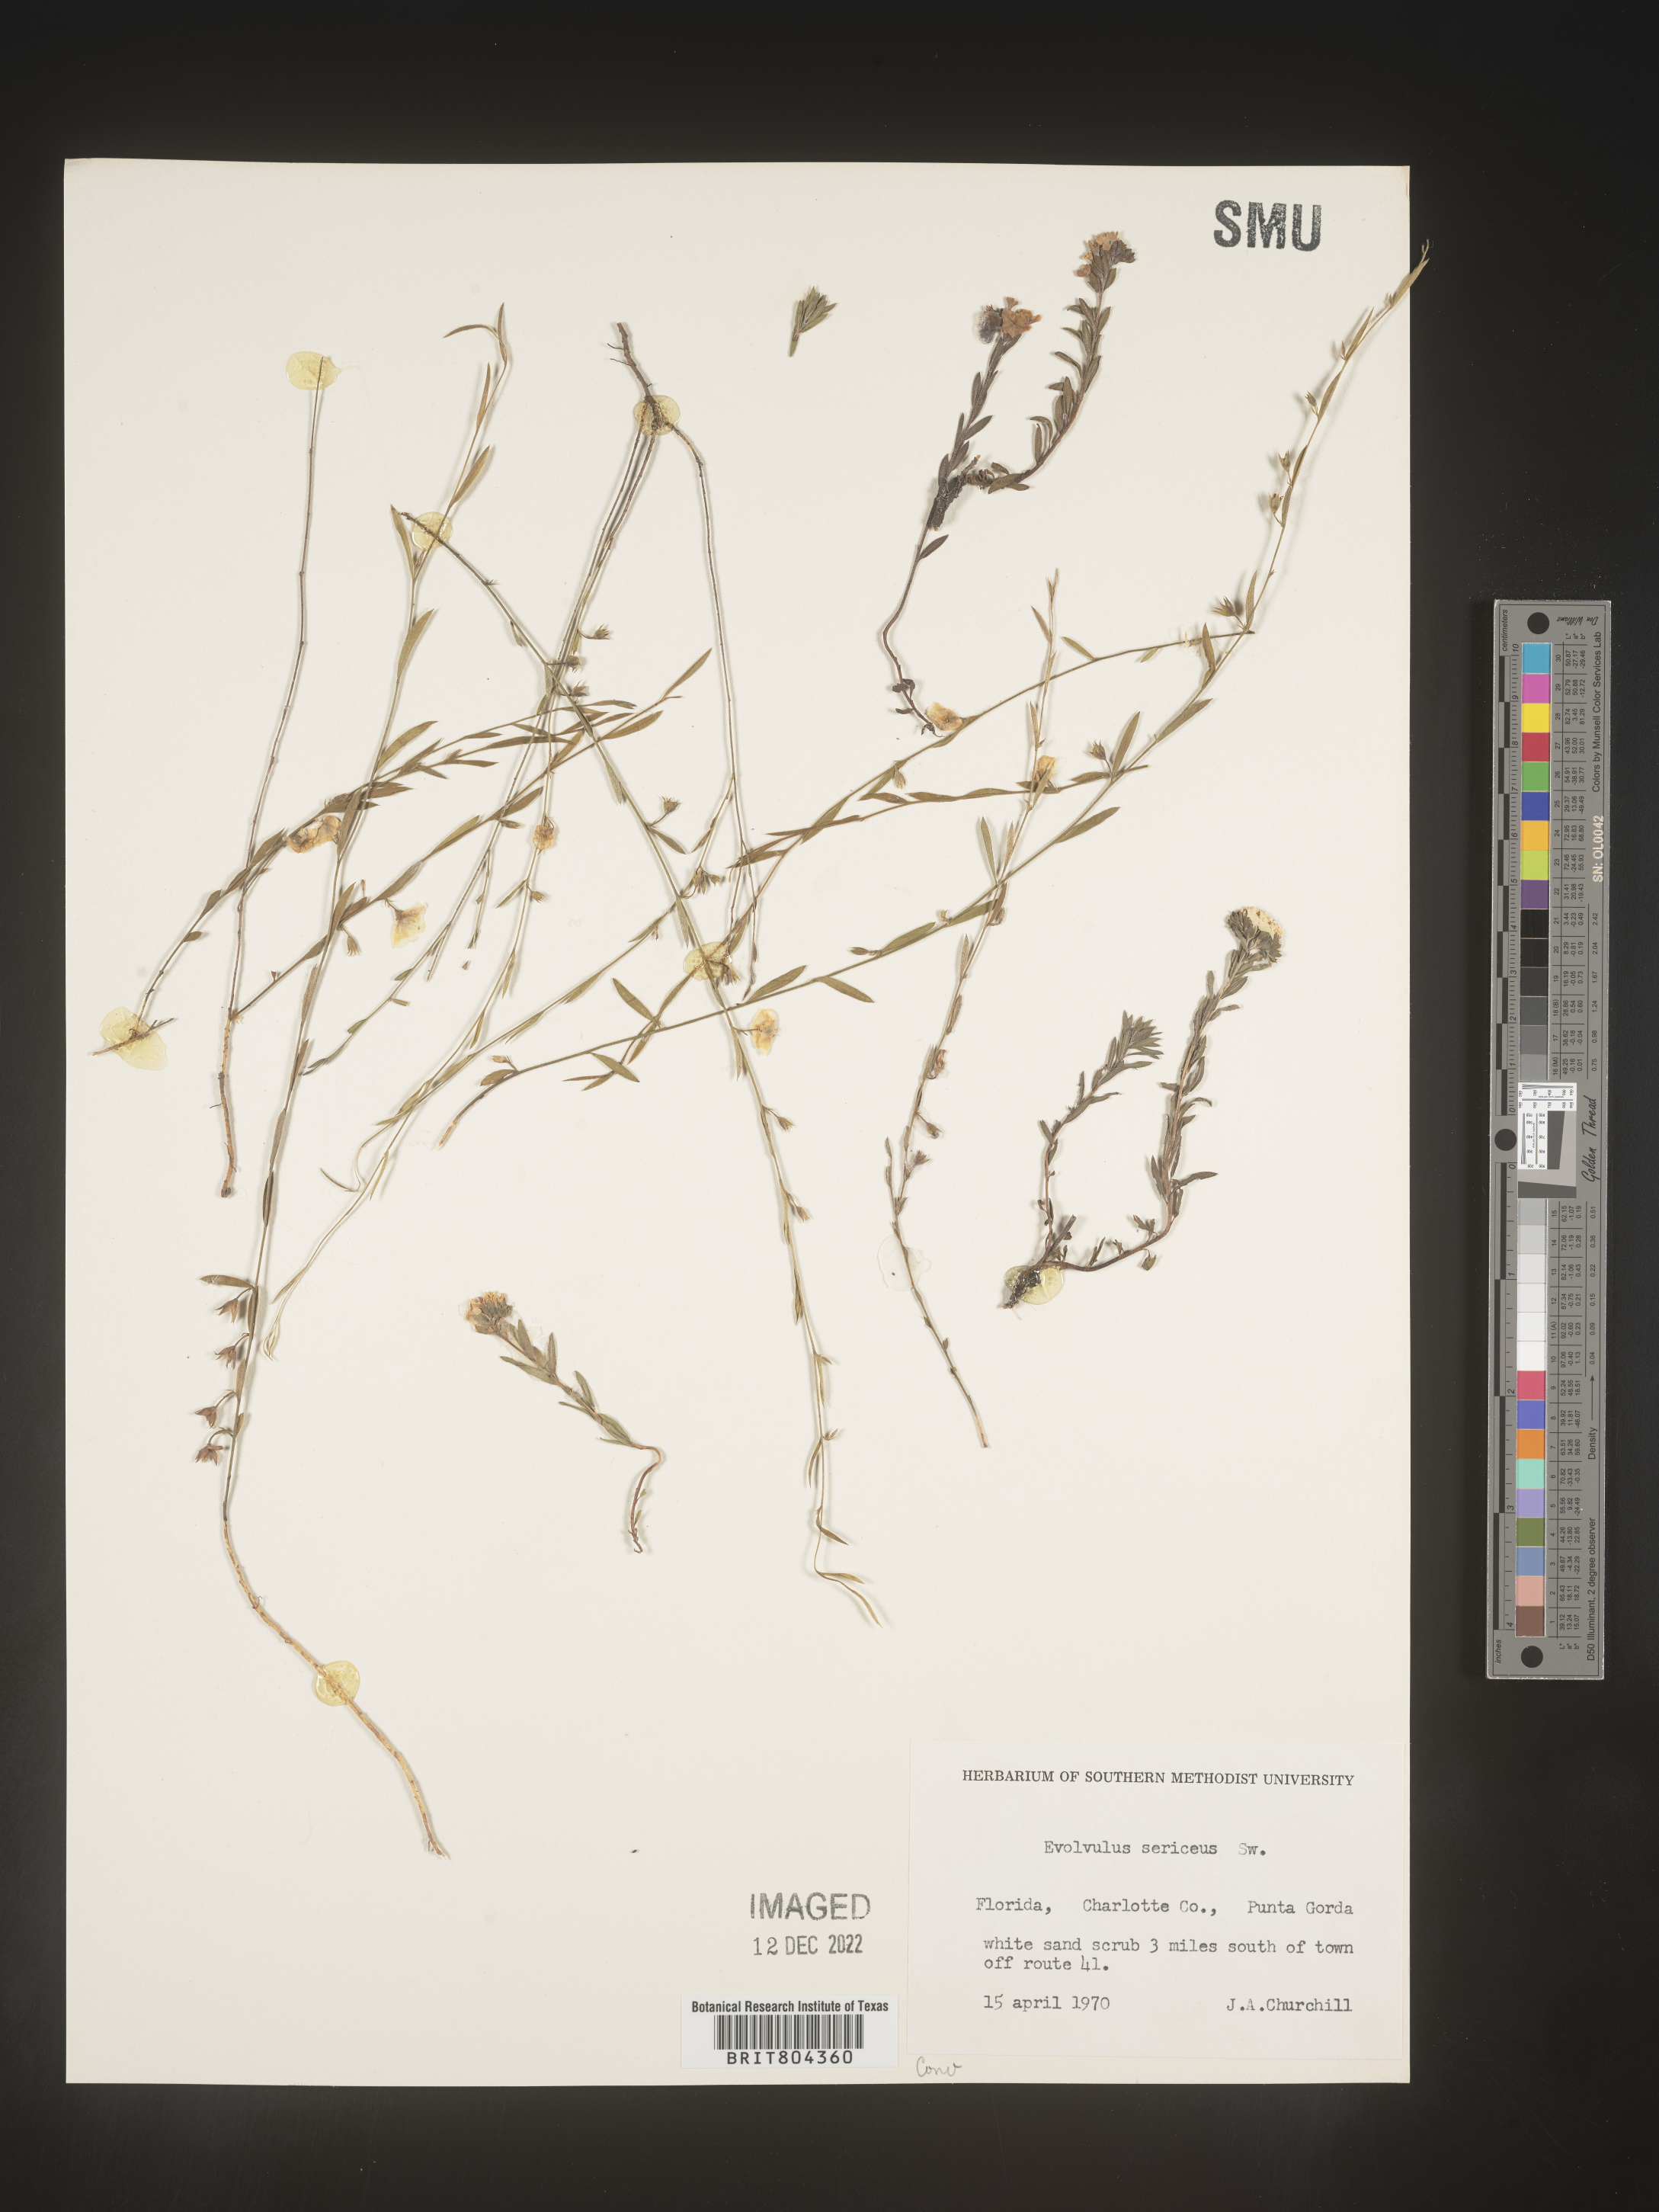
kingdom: Plantae
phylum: Tracheophyta
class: Magnoliopsida
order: Solanales
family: Convolvulaceae
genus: Evolvulus
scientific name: Evolvulus sericeus
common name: Blue dots
